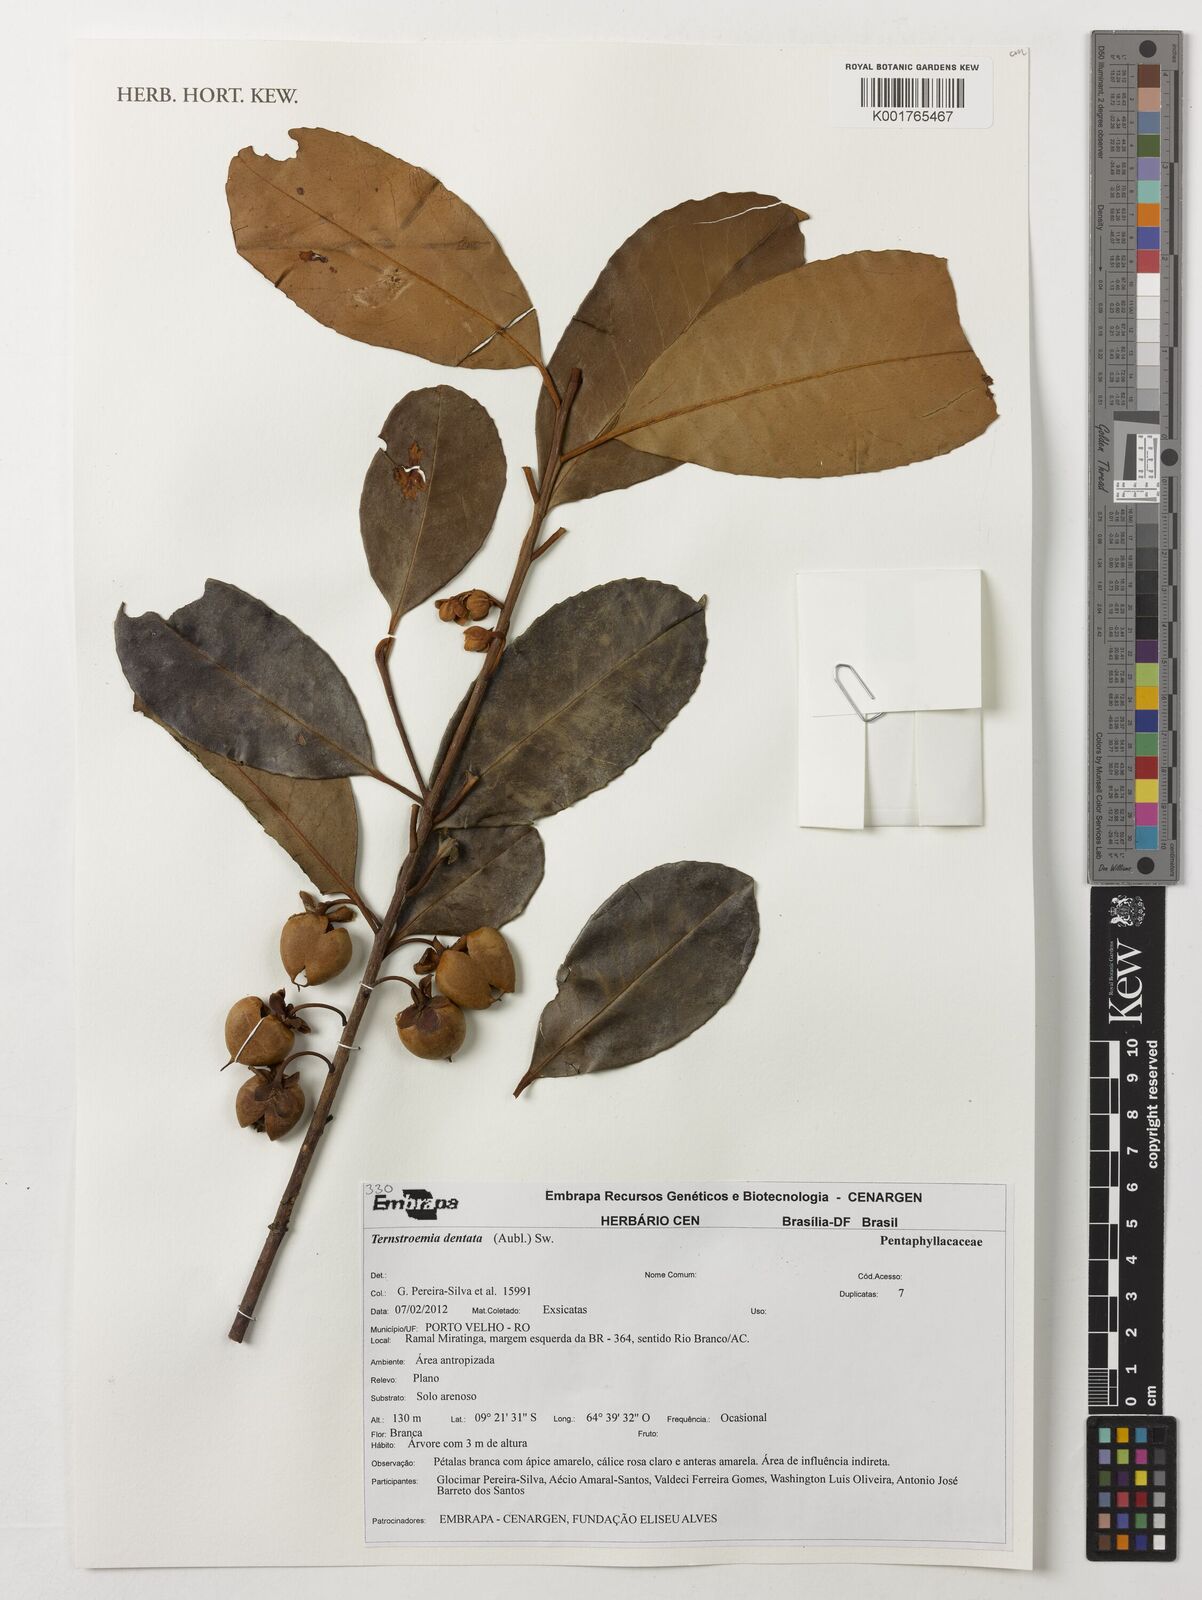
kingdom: Plantae
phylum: Tracheophyta
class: Magnoliopsida
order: Ericales
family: Pentaphylacaceae
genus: Ternstroemia
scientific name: Ternstroemia dentata
